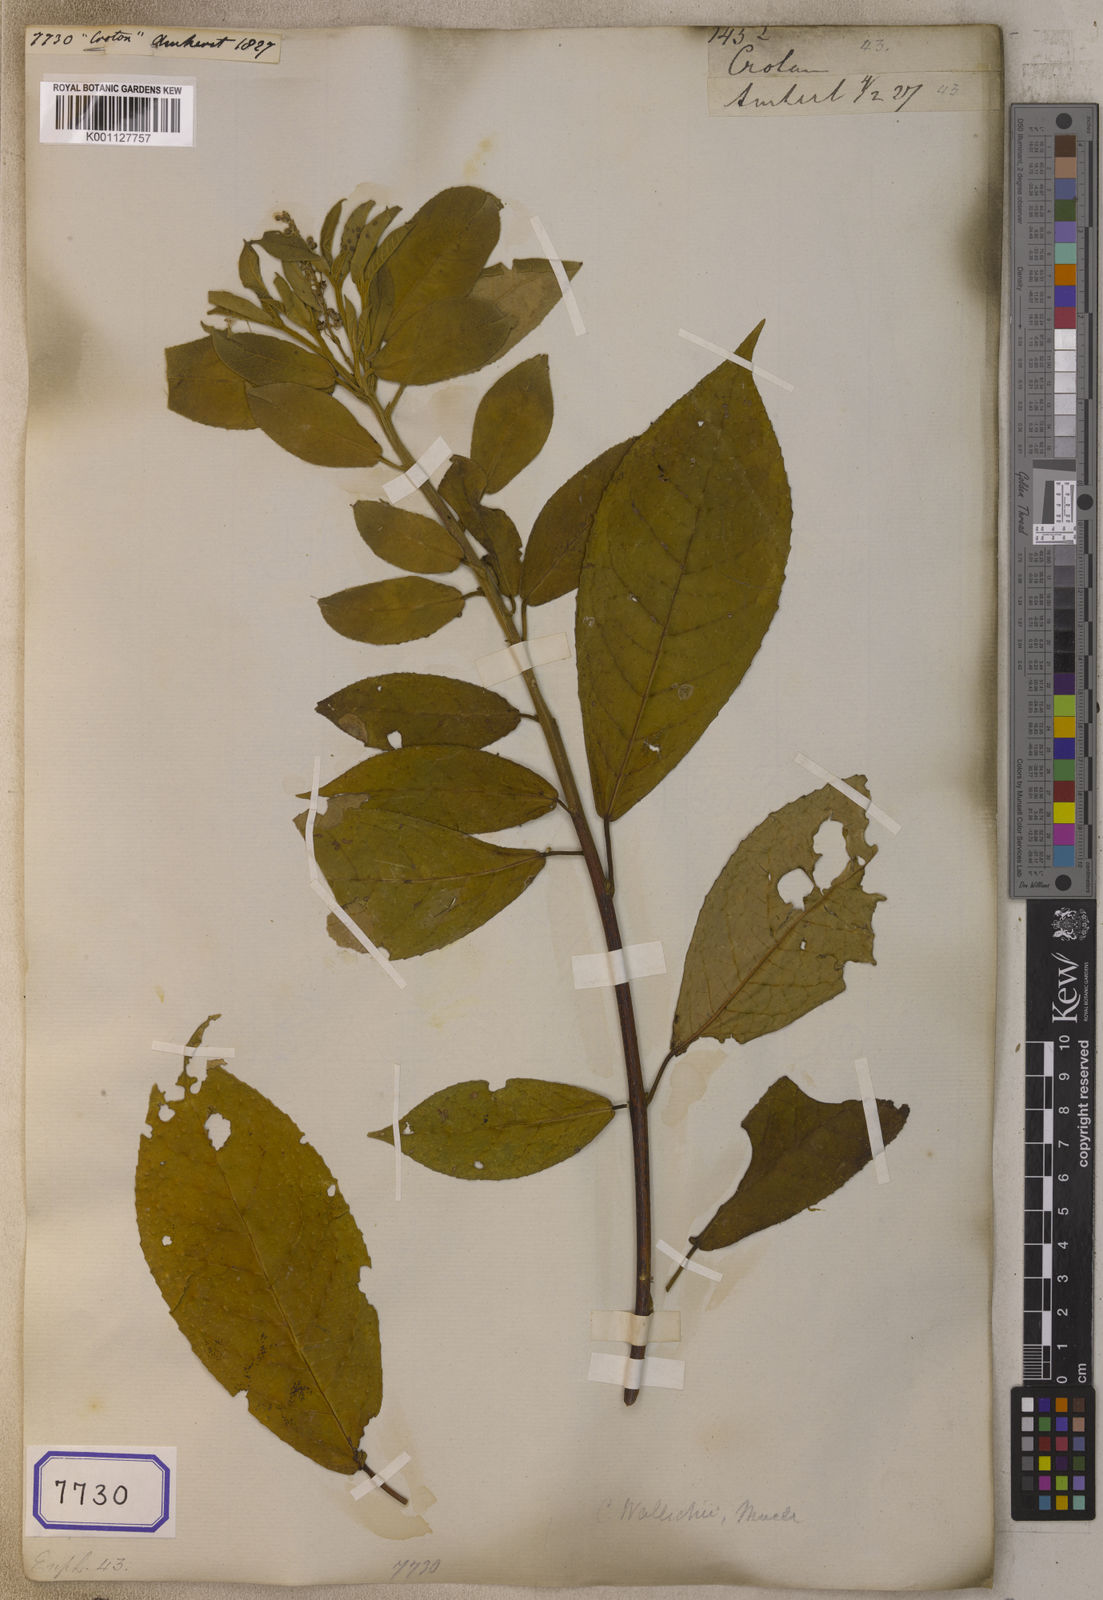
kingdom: Plantae
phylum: Tracheophyta
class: Magnoliopsida
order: Malpighiales
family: Euphorbiaceae
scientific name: Euphorbiaceae
